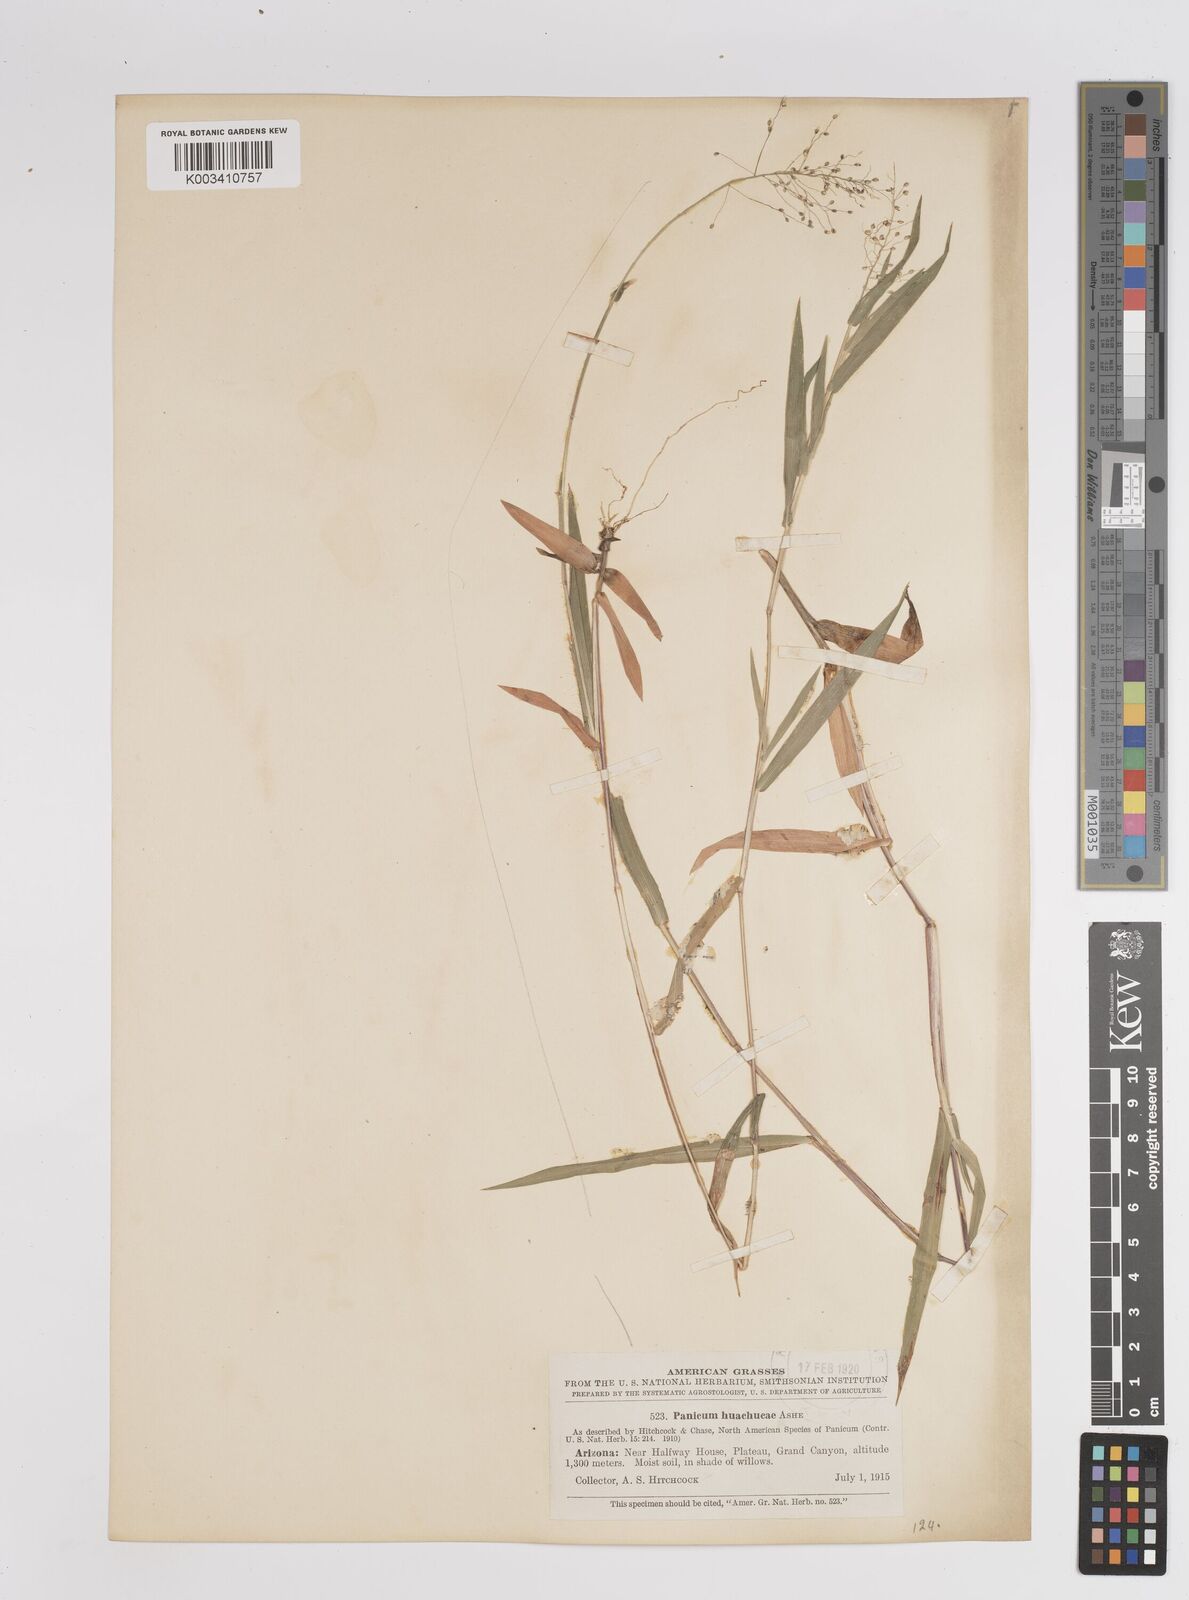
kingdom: Plantae
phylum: Tracheophyta
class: Liliopsida
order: Poales
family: Poaceae
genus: Dichanthelium
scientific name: Dichanthelium acuminatum
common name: Hairy panic grass
